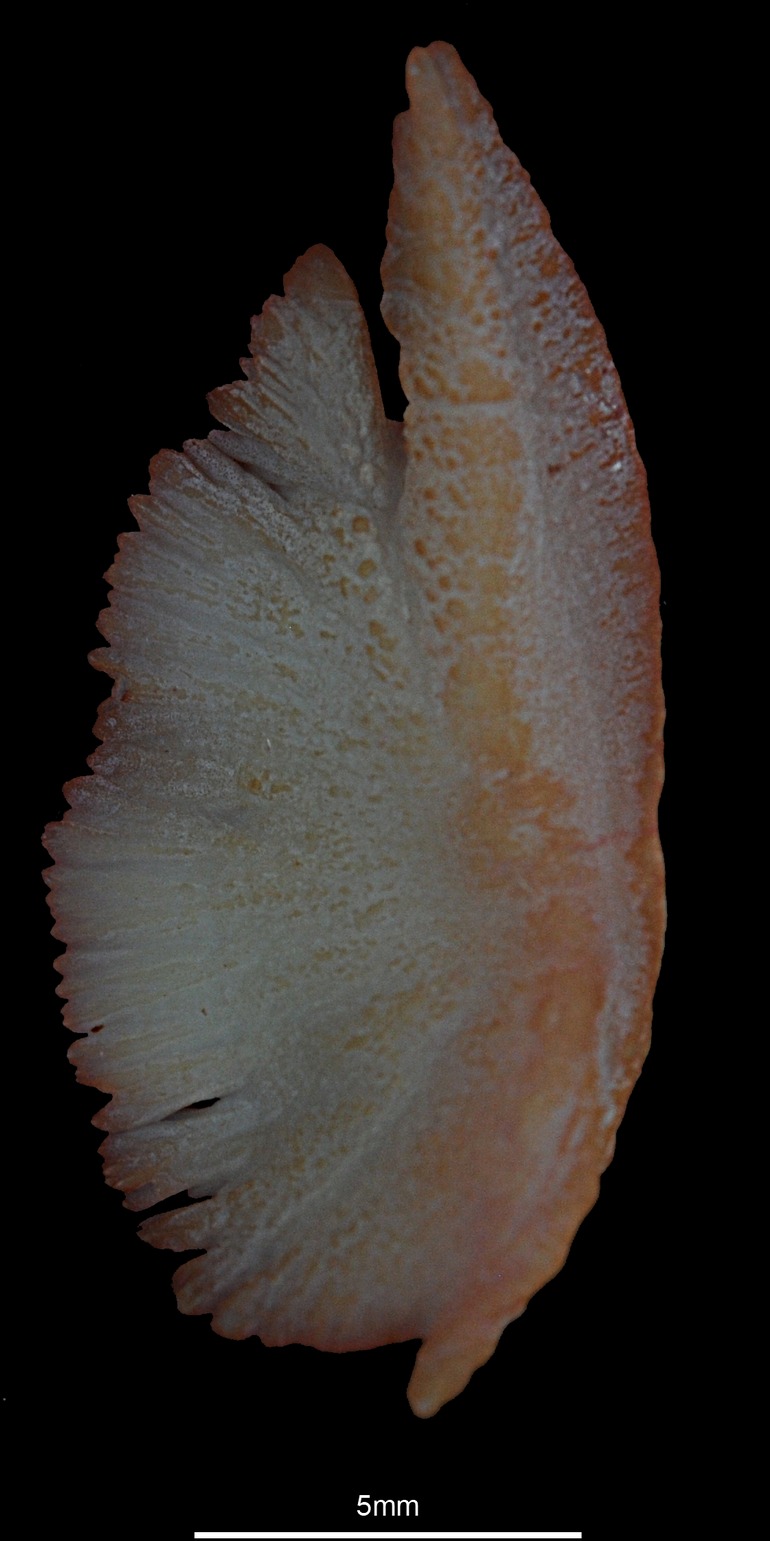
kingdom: Animalia
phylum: Chordata
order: Scorpaeniformes
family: Scorpaenidae
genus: Scorpaena
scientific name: Scorpaena scrofa
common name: Red scorpionfish
